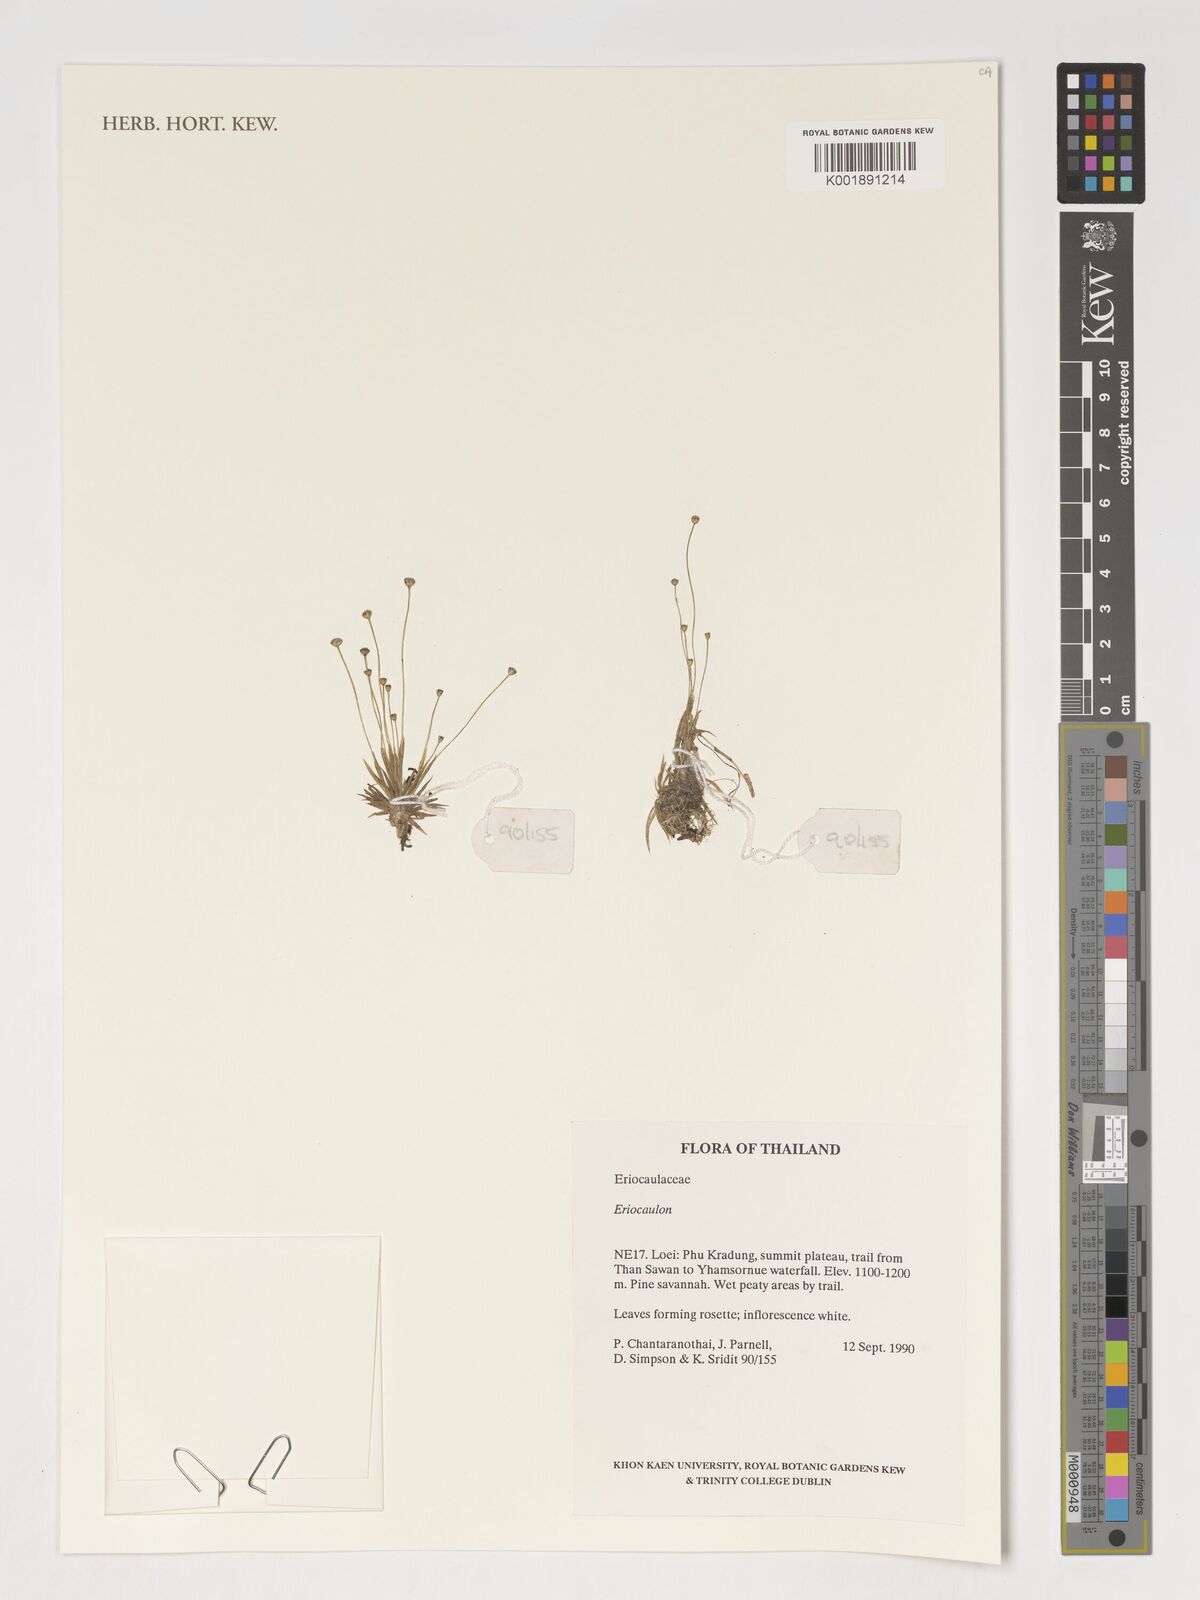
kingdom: Plantae
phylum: Tracheophyta
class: Liliopsida
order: Poales
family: Eriocaulaceae
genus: Eriocaulon
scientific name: Eriocaulon
